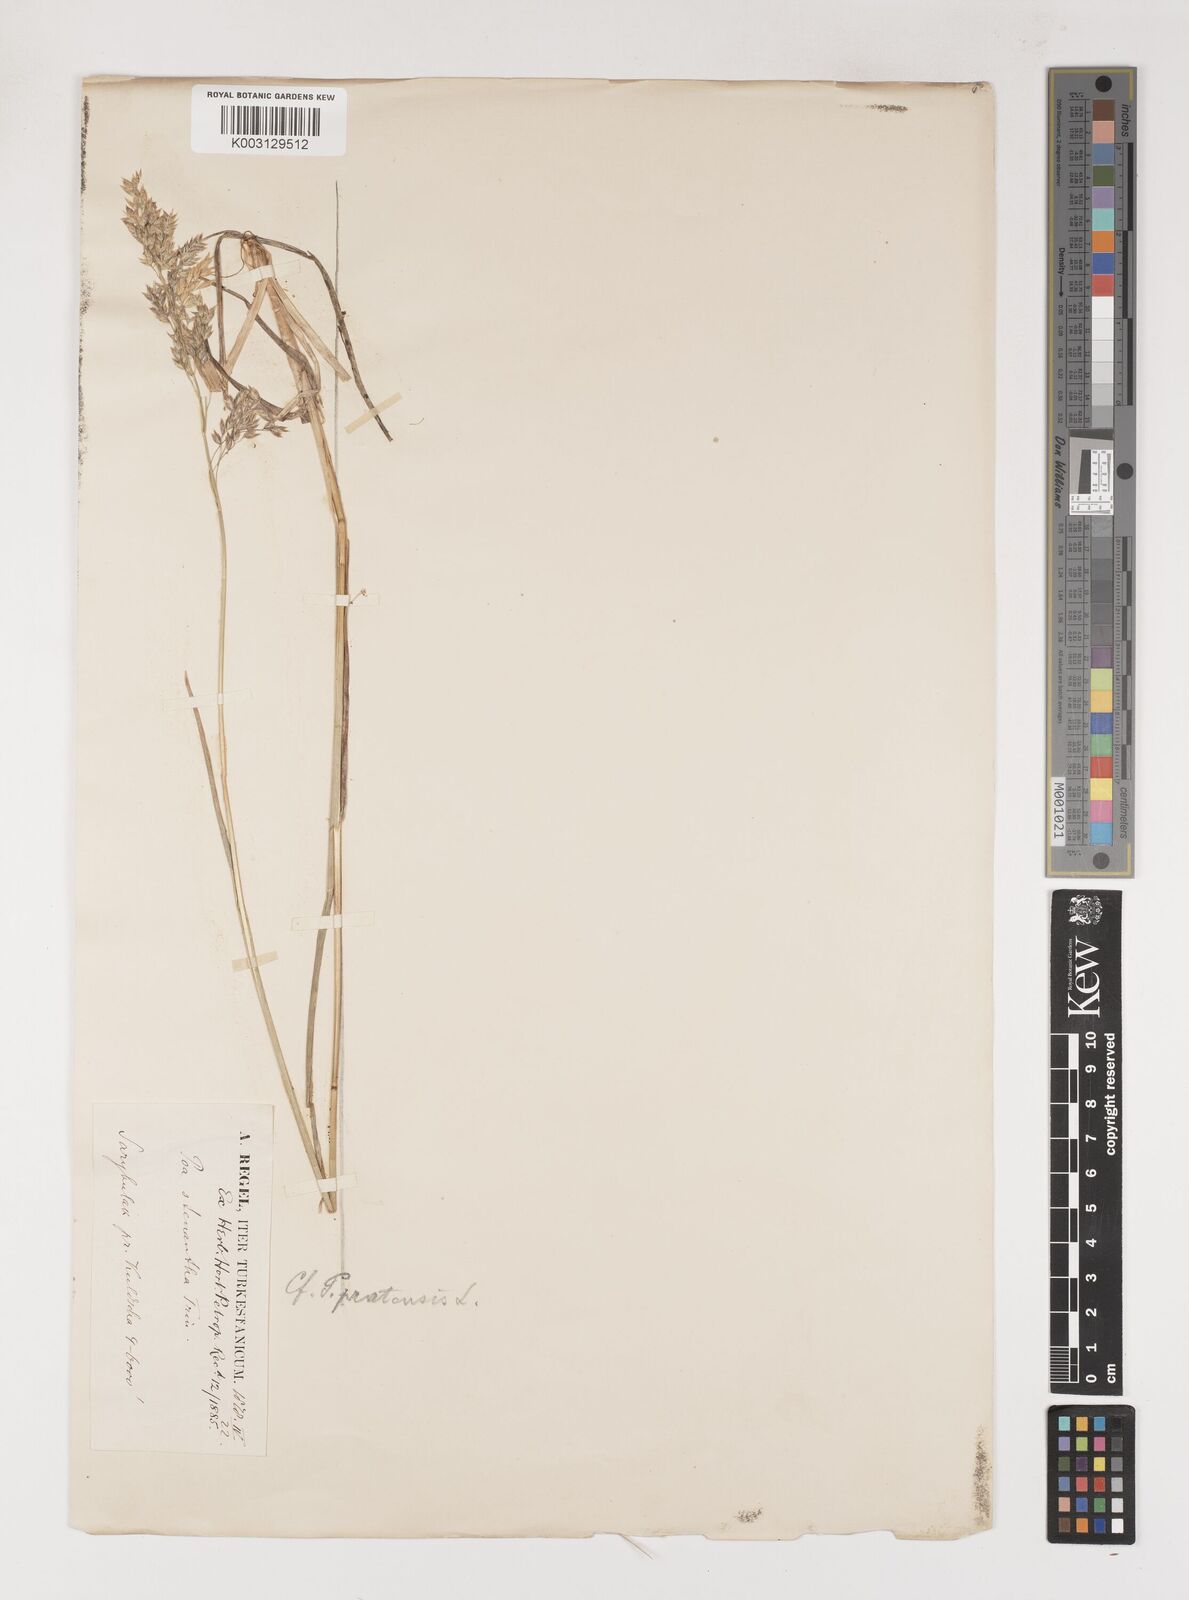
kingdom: Plantae
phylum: Tracheophyta
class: Liliopsida
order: Poales
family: Poaceae
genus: Poa
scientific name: Poa
